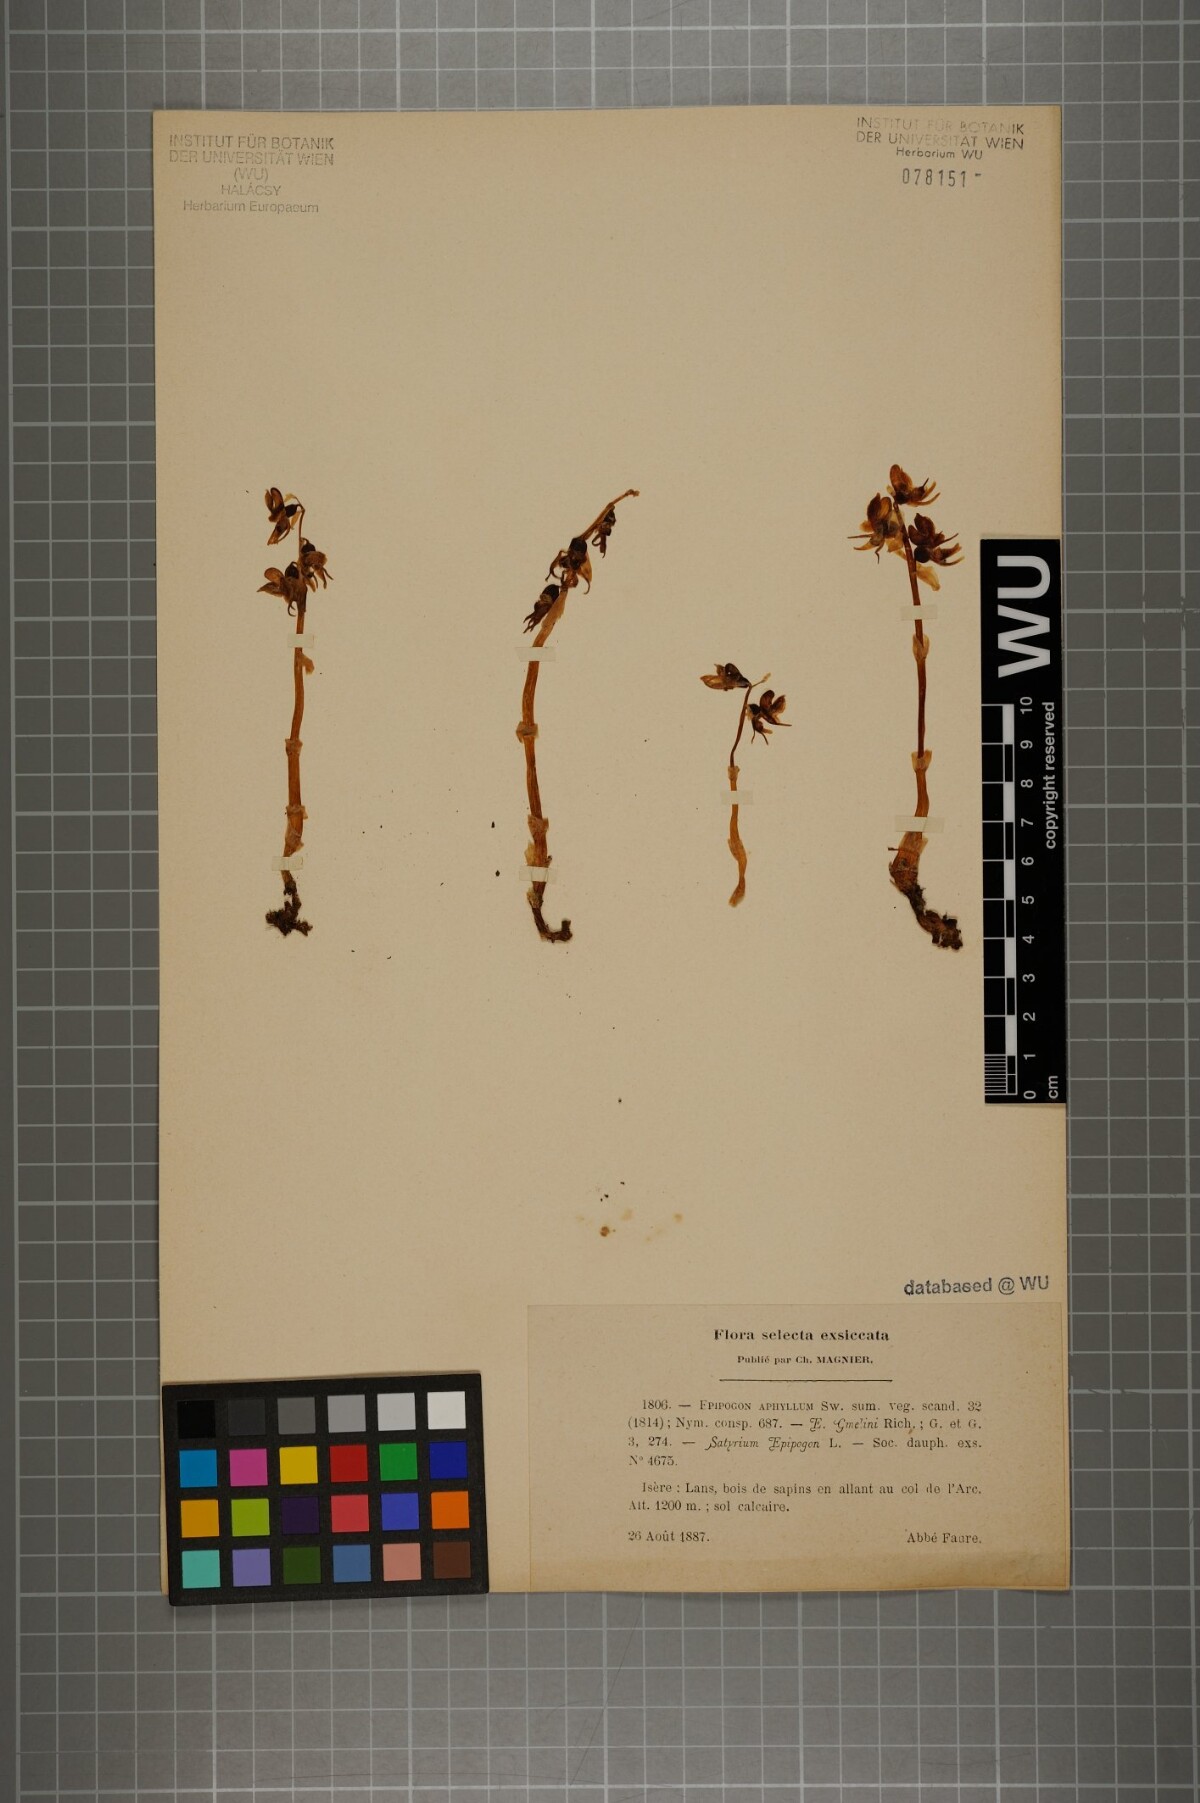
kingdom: Plantae
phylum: Tracheophyta
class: Liliopsida
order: Asparagales
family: Orchidaceae
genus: Epipogium
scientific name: Epipogium aphyllum
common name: Ghost orchid
